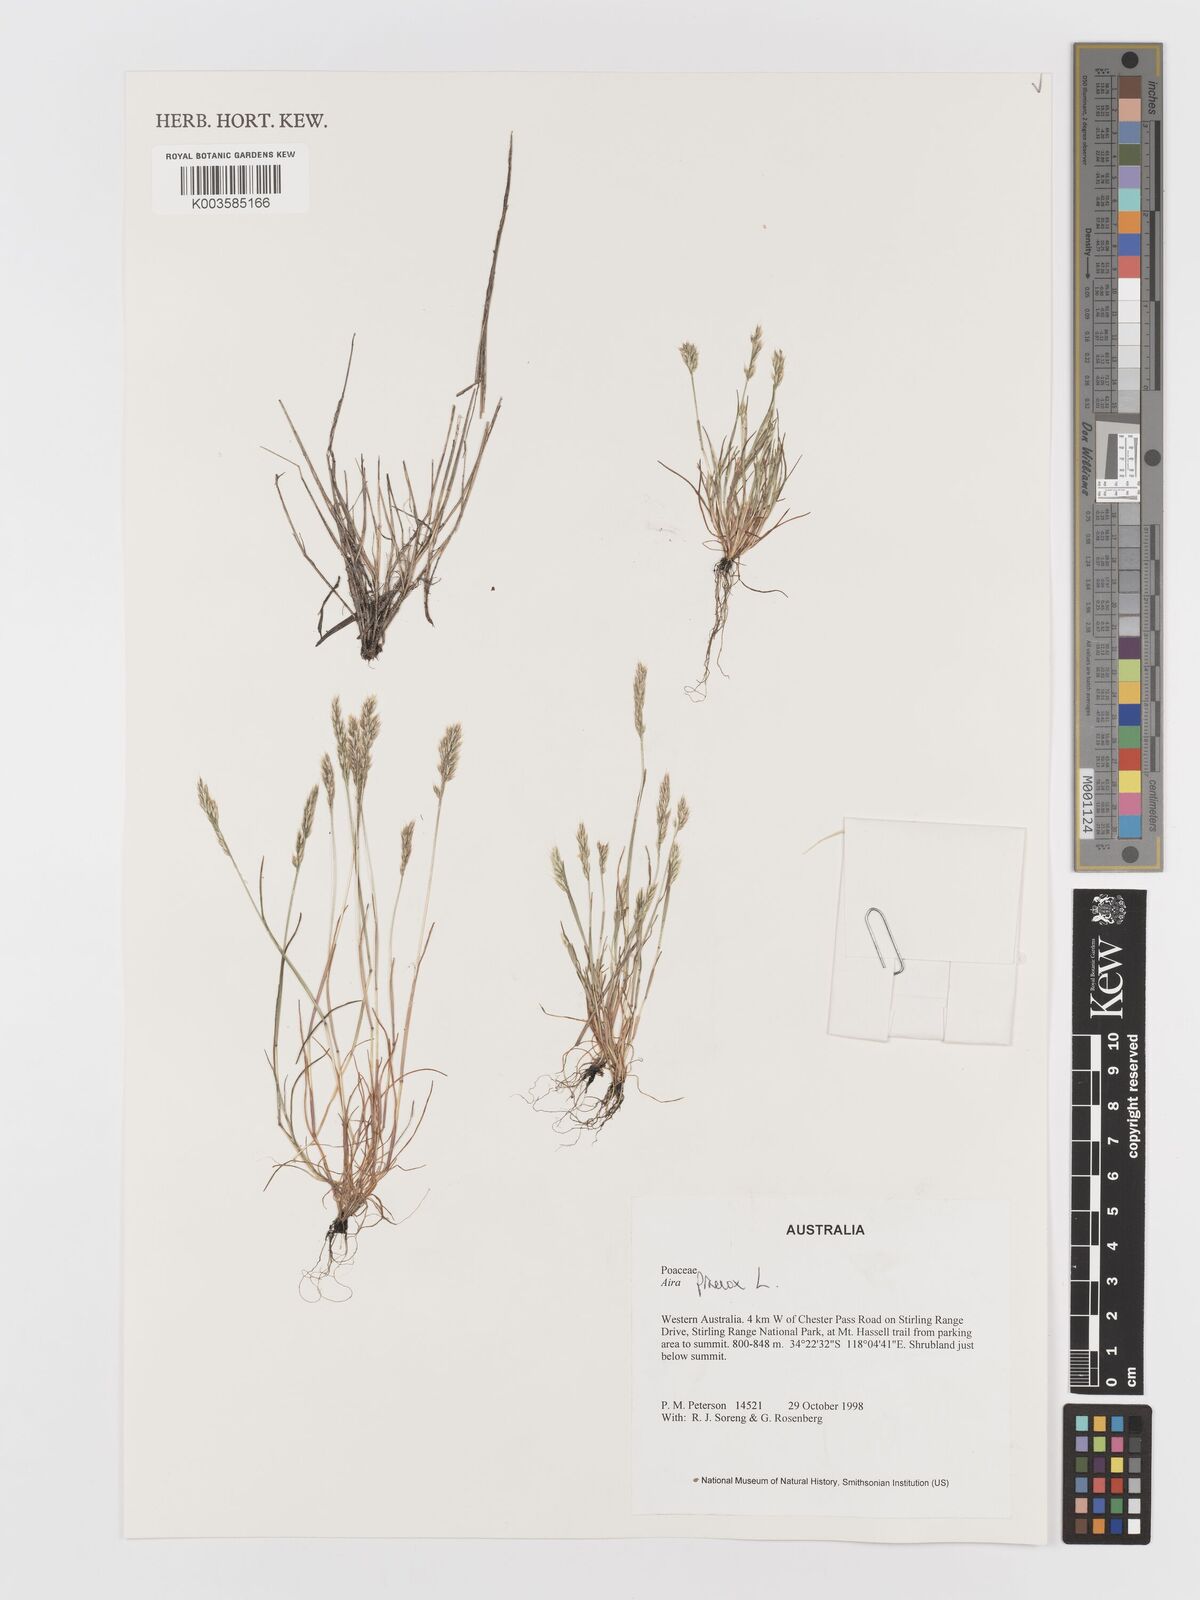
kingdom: Plantae
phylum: Tracheophyta
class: Liliopsida
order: Poales
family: Poaceae
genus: Aira
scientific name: Aira praecox
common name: Early hair-grass
